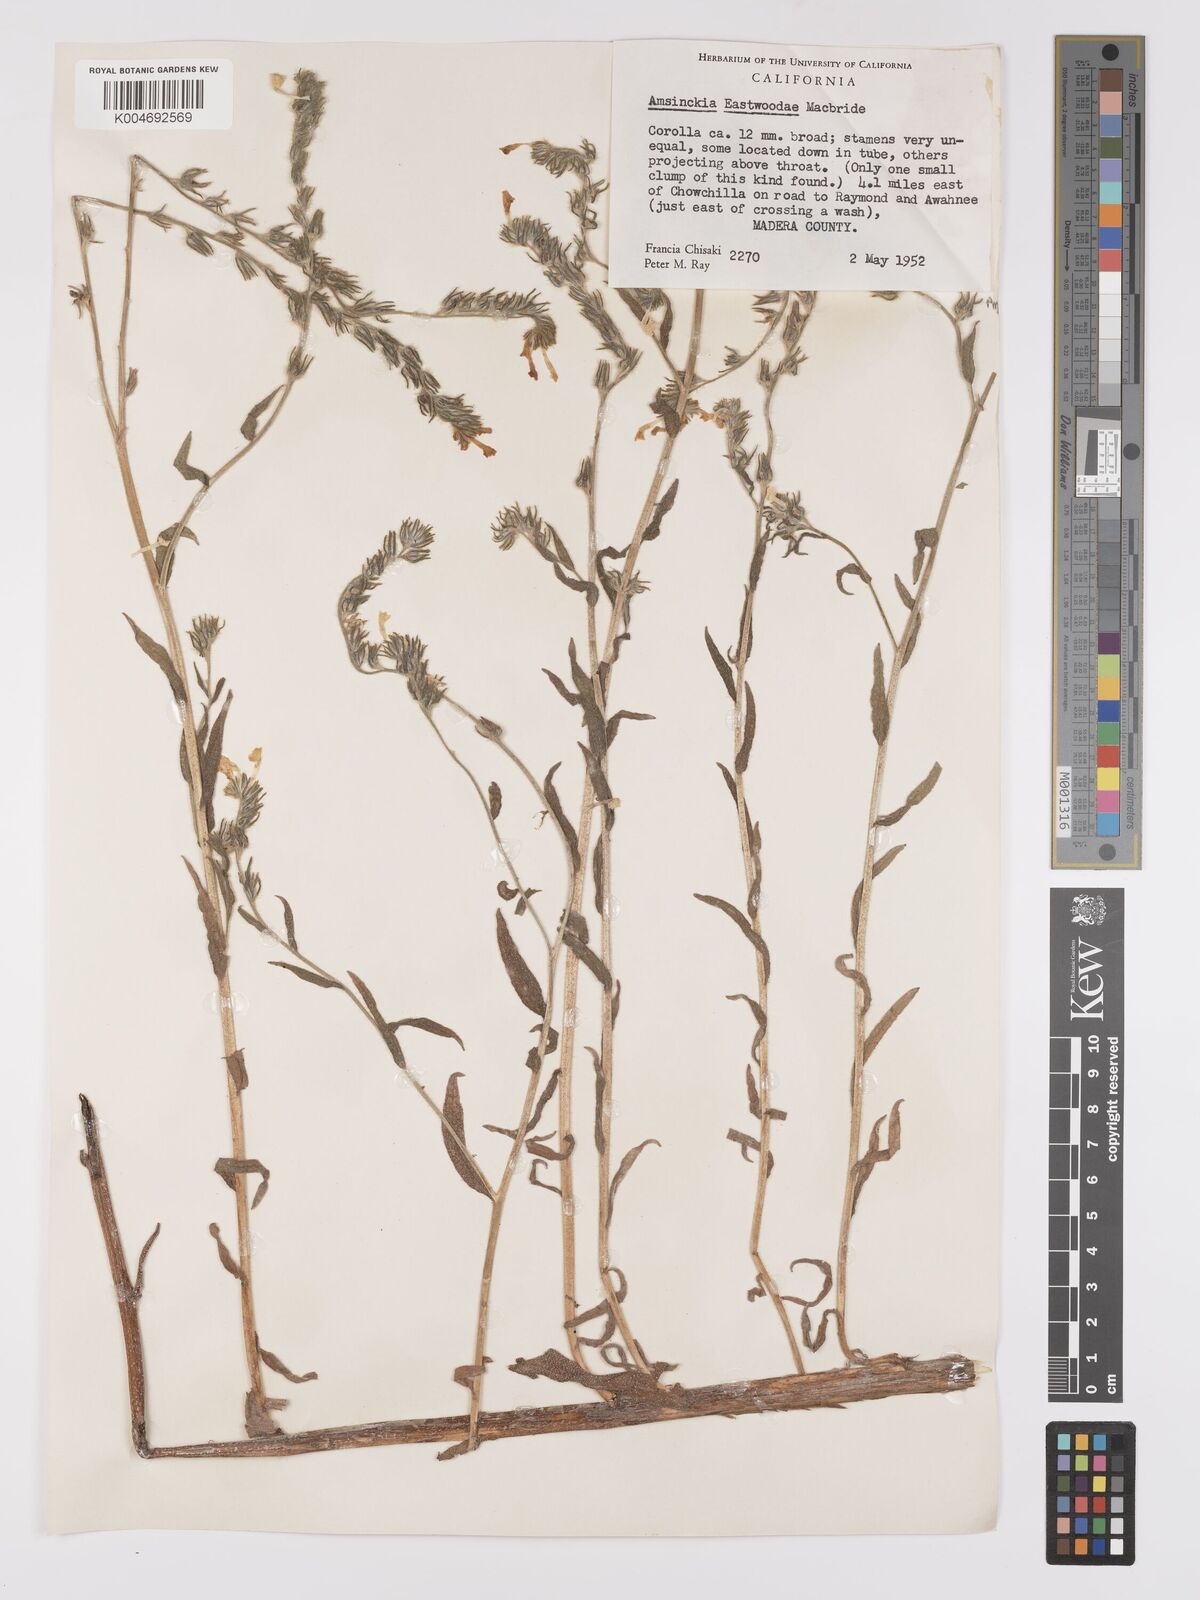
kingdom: Plantae
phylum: Tracheophyta
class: Magnoliopsida
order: Boraginales
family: Boraginaceae
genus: Amsinckia
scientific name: Amsinckia eastwoodiae
